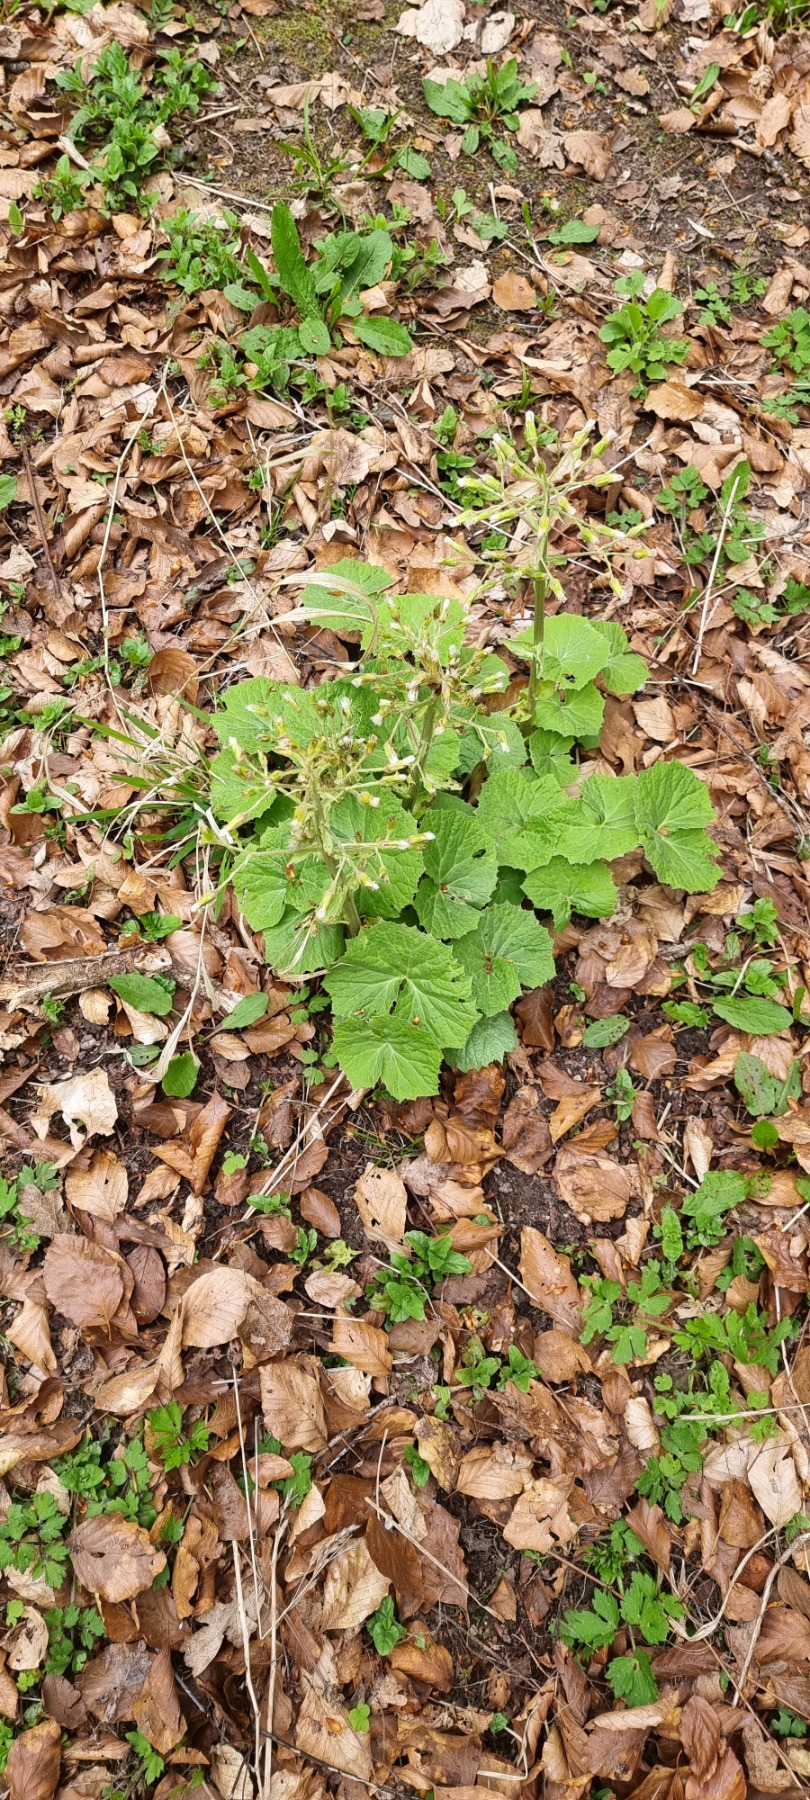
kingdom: Plantae
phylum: Tracheophyta
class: Magnoliopsida
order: Asterales
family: Asteraceae
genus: Petasites
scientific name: Petasites albus
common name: Hvid hestehov
